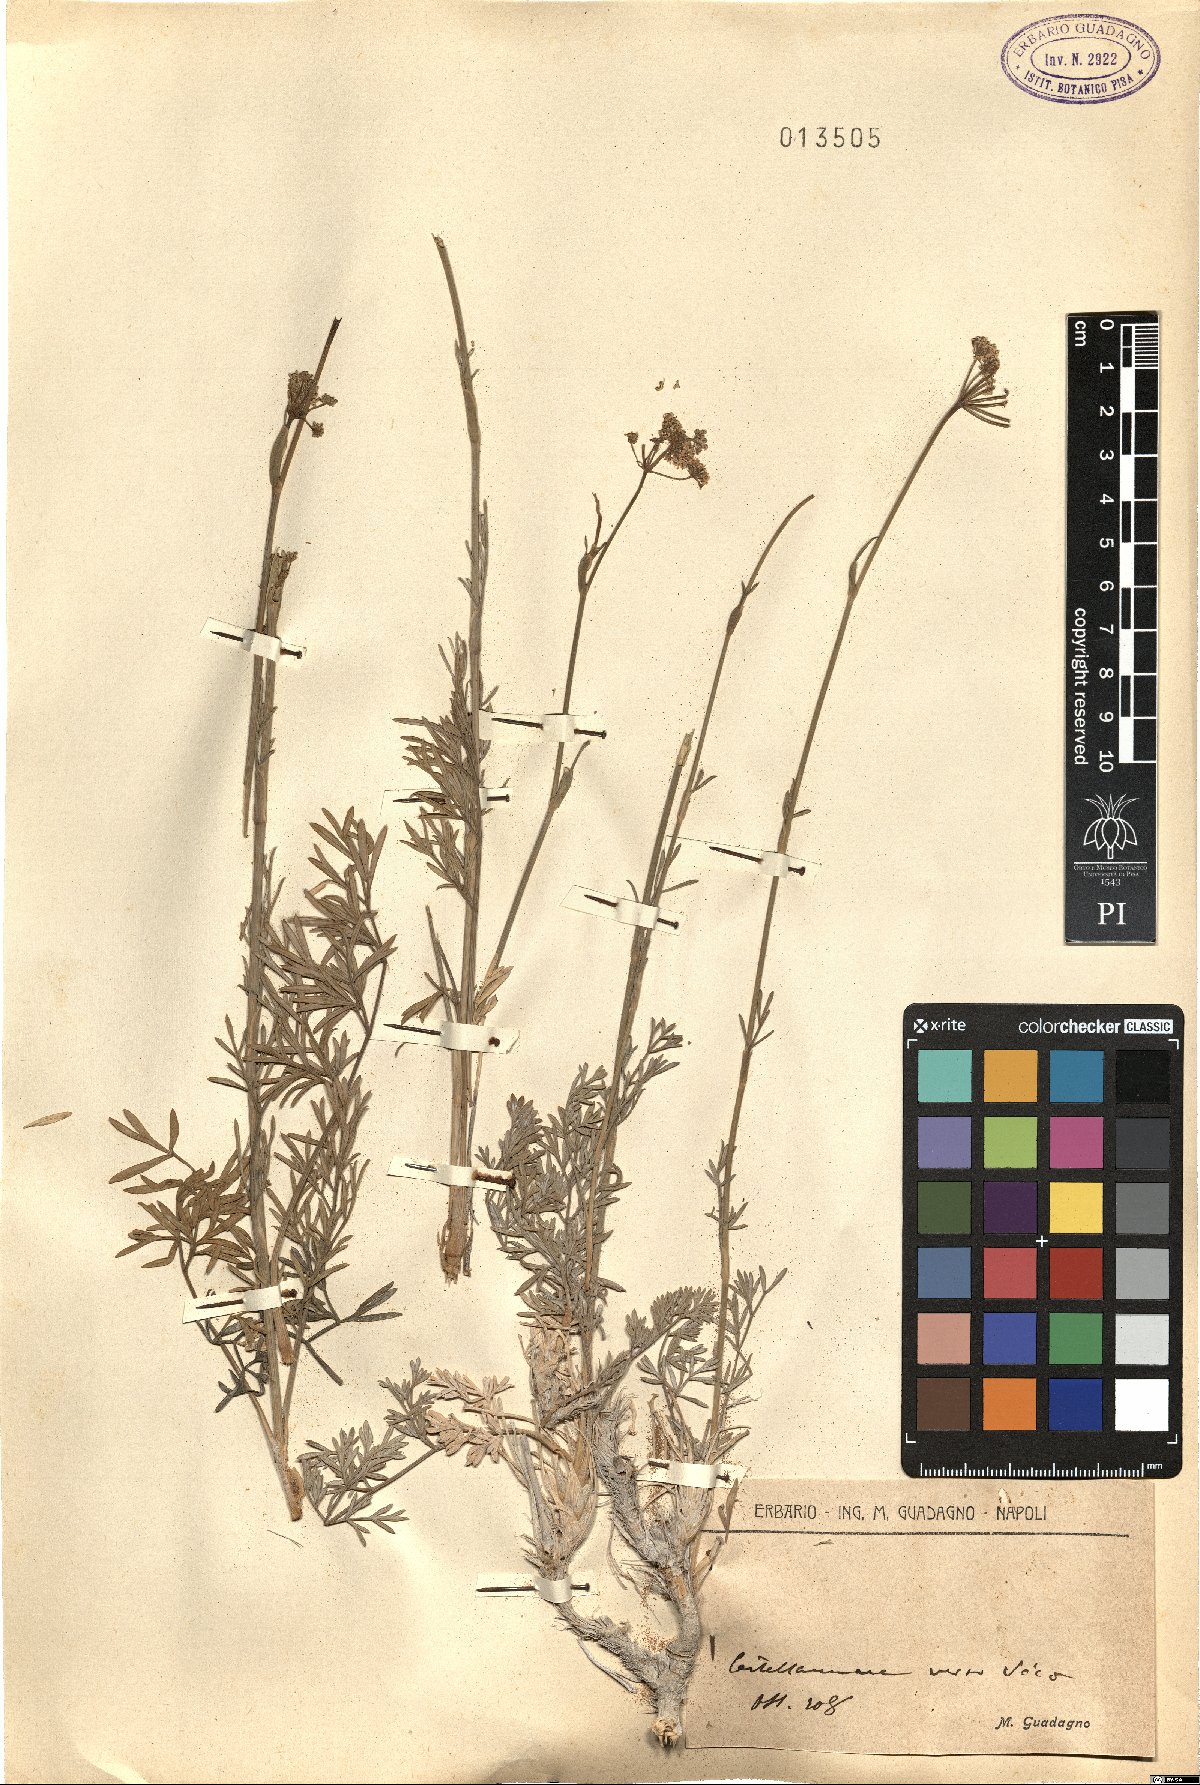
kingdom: Plantae
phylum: Tracheophyta
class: Magnoliopsida
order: Apiales
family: Apiaceae
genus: Seseli
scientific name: Seseli
